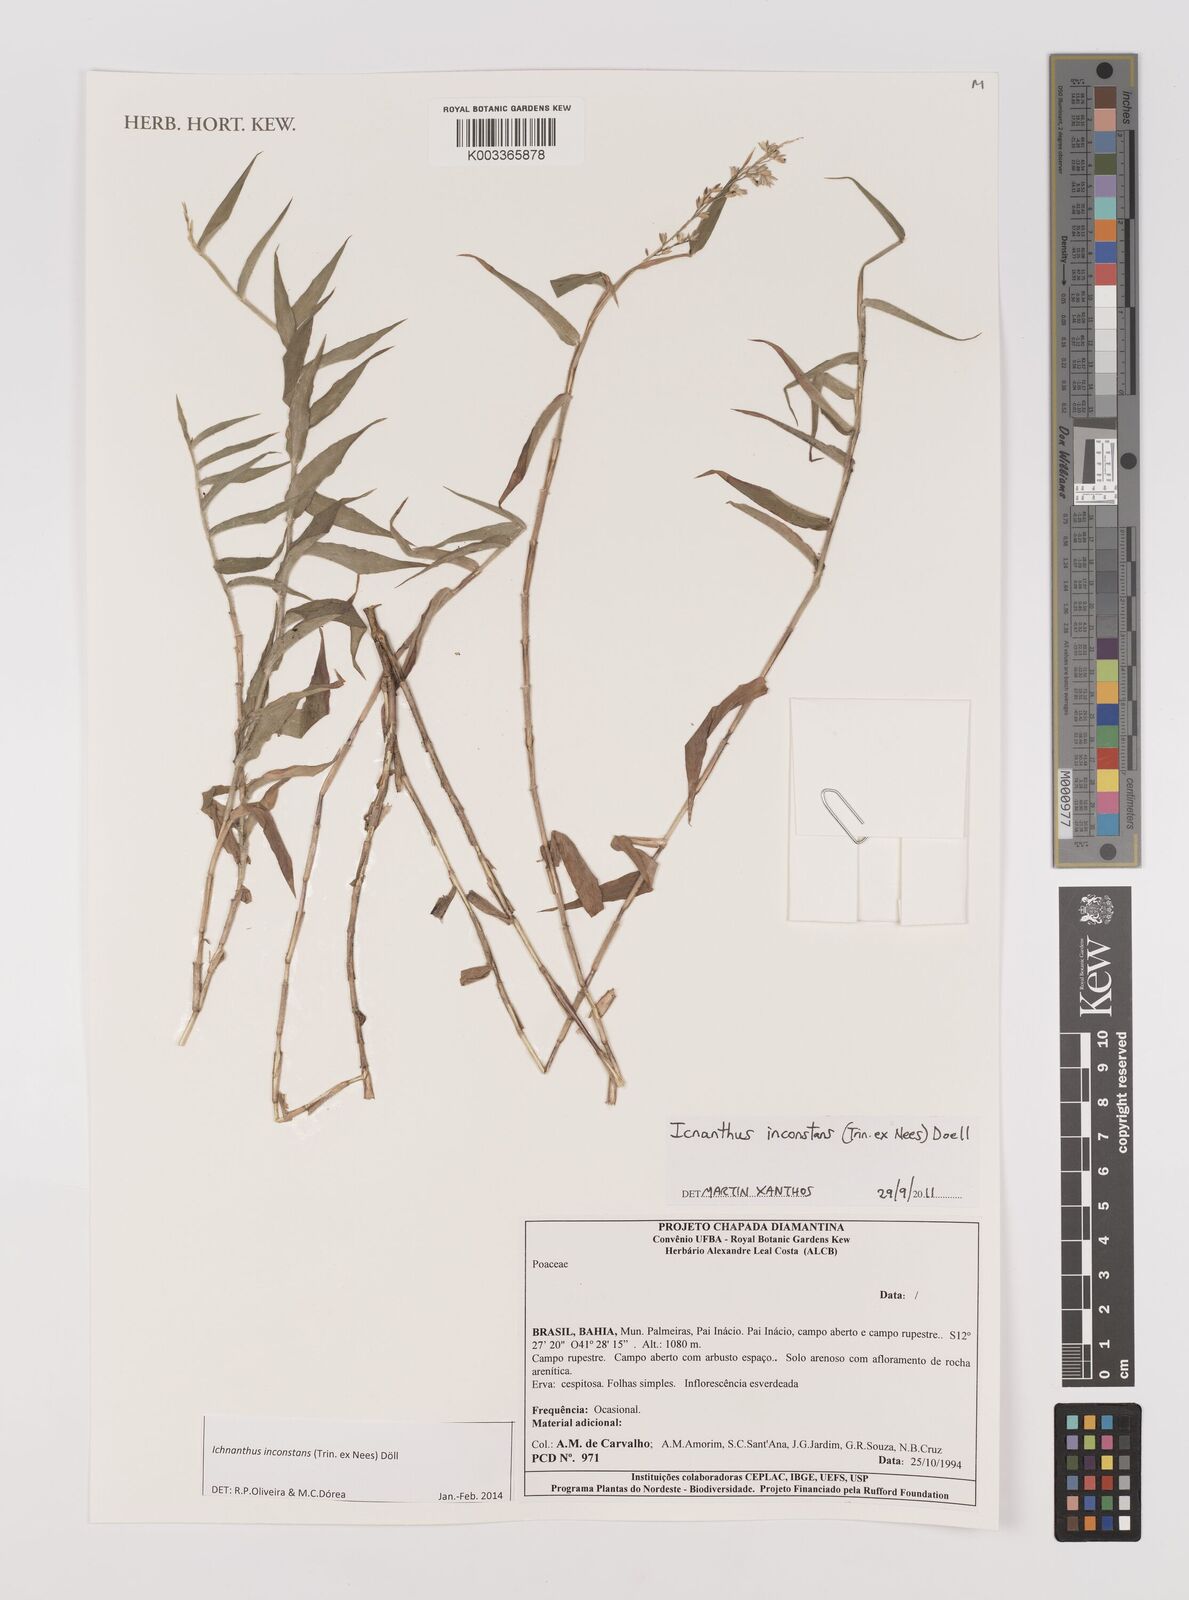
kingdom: Plantae
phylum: Tracheophyta
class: Liliopsida
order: Poales
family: Poaceae
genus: Ichnanthus
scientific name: Ichnanthus inconstans
